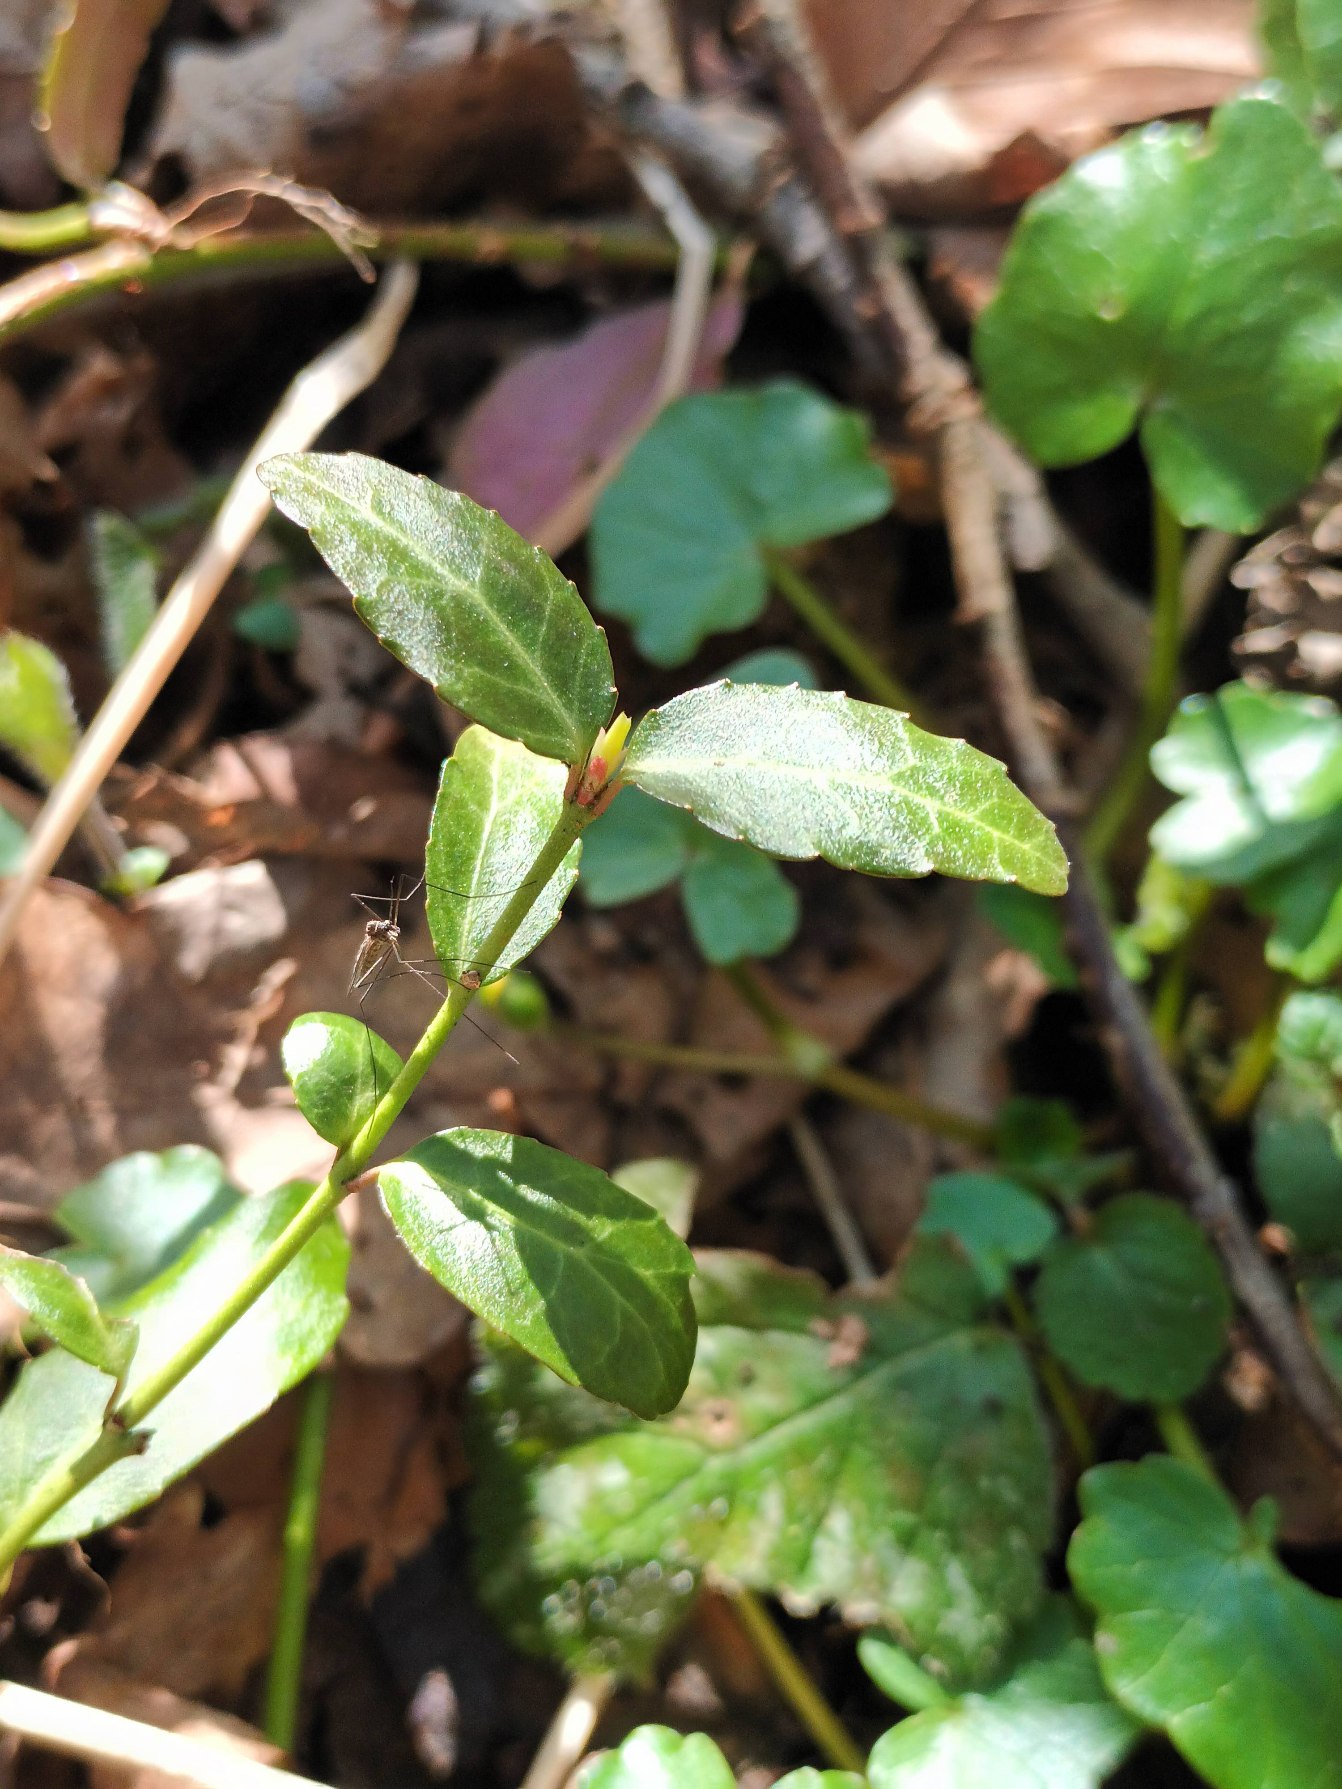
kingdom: Plantae
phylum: Tracheophyta
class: Magnoliopsida
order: Celastrales
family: Celastraceae
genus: Euonymus
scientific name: Euonymus fortunei
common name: Krybende benved
